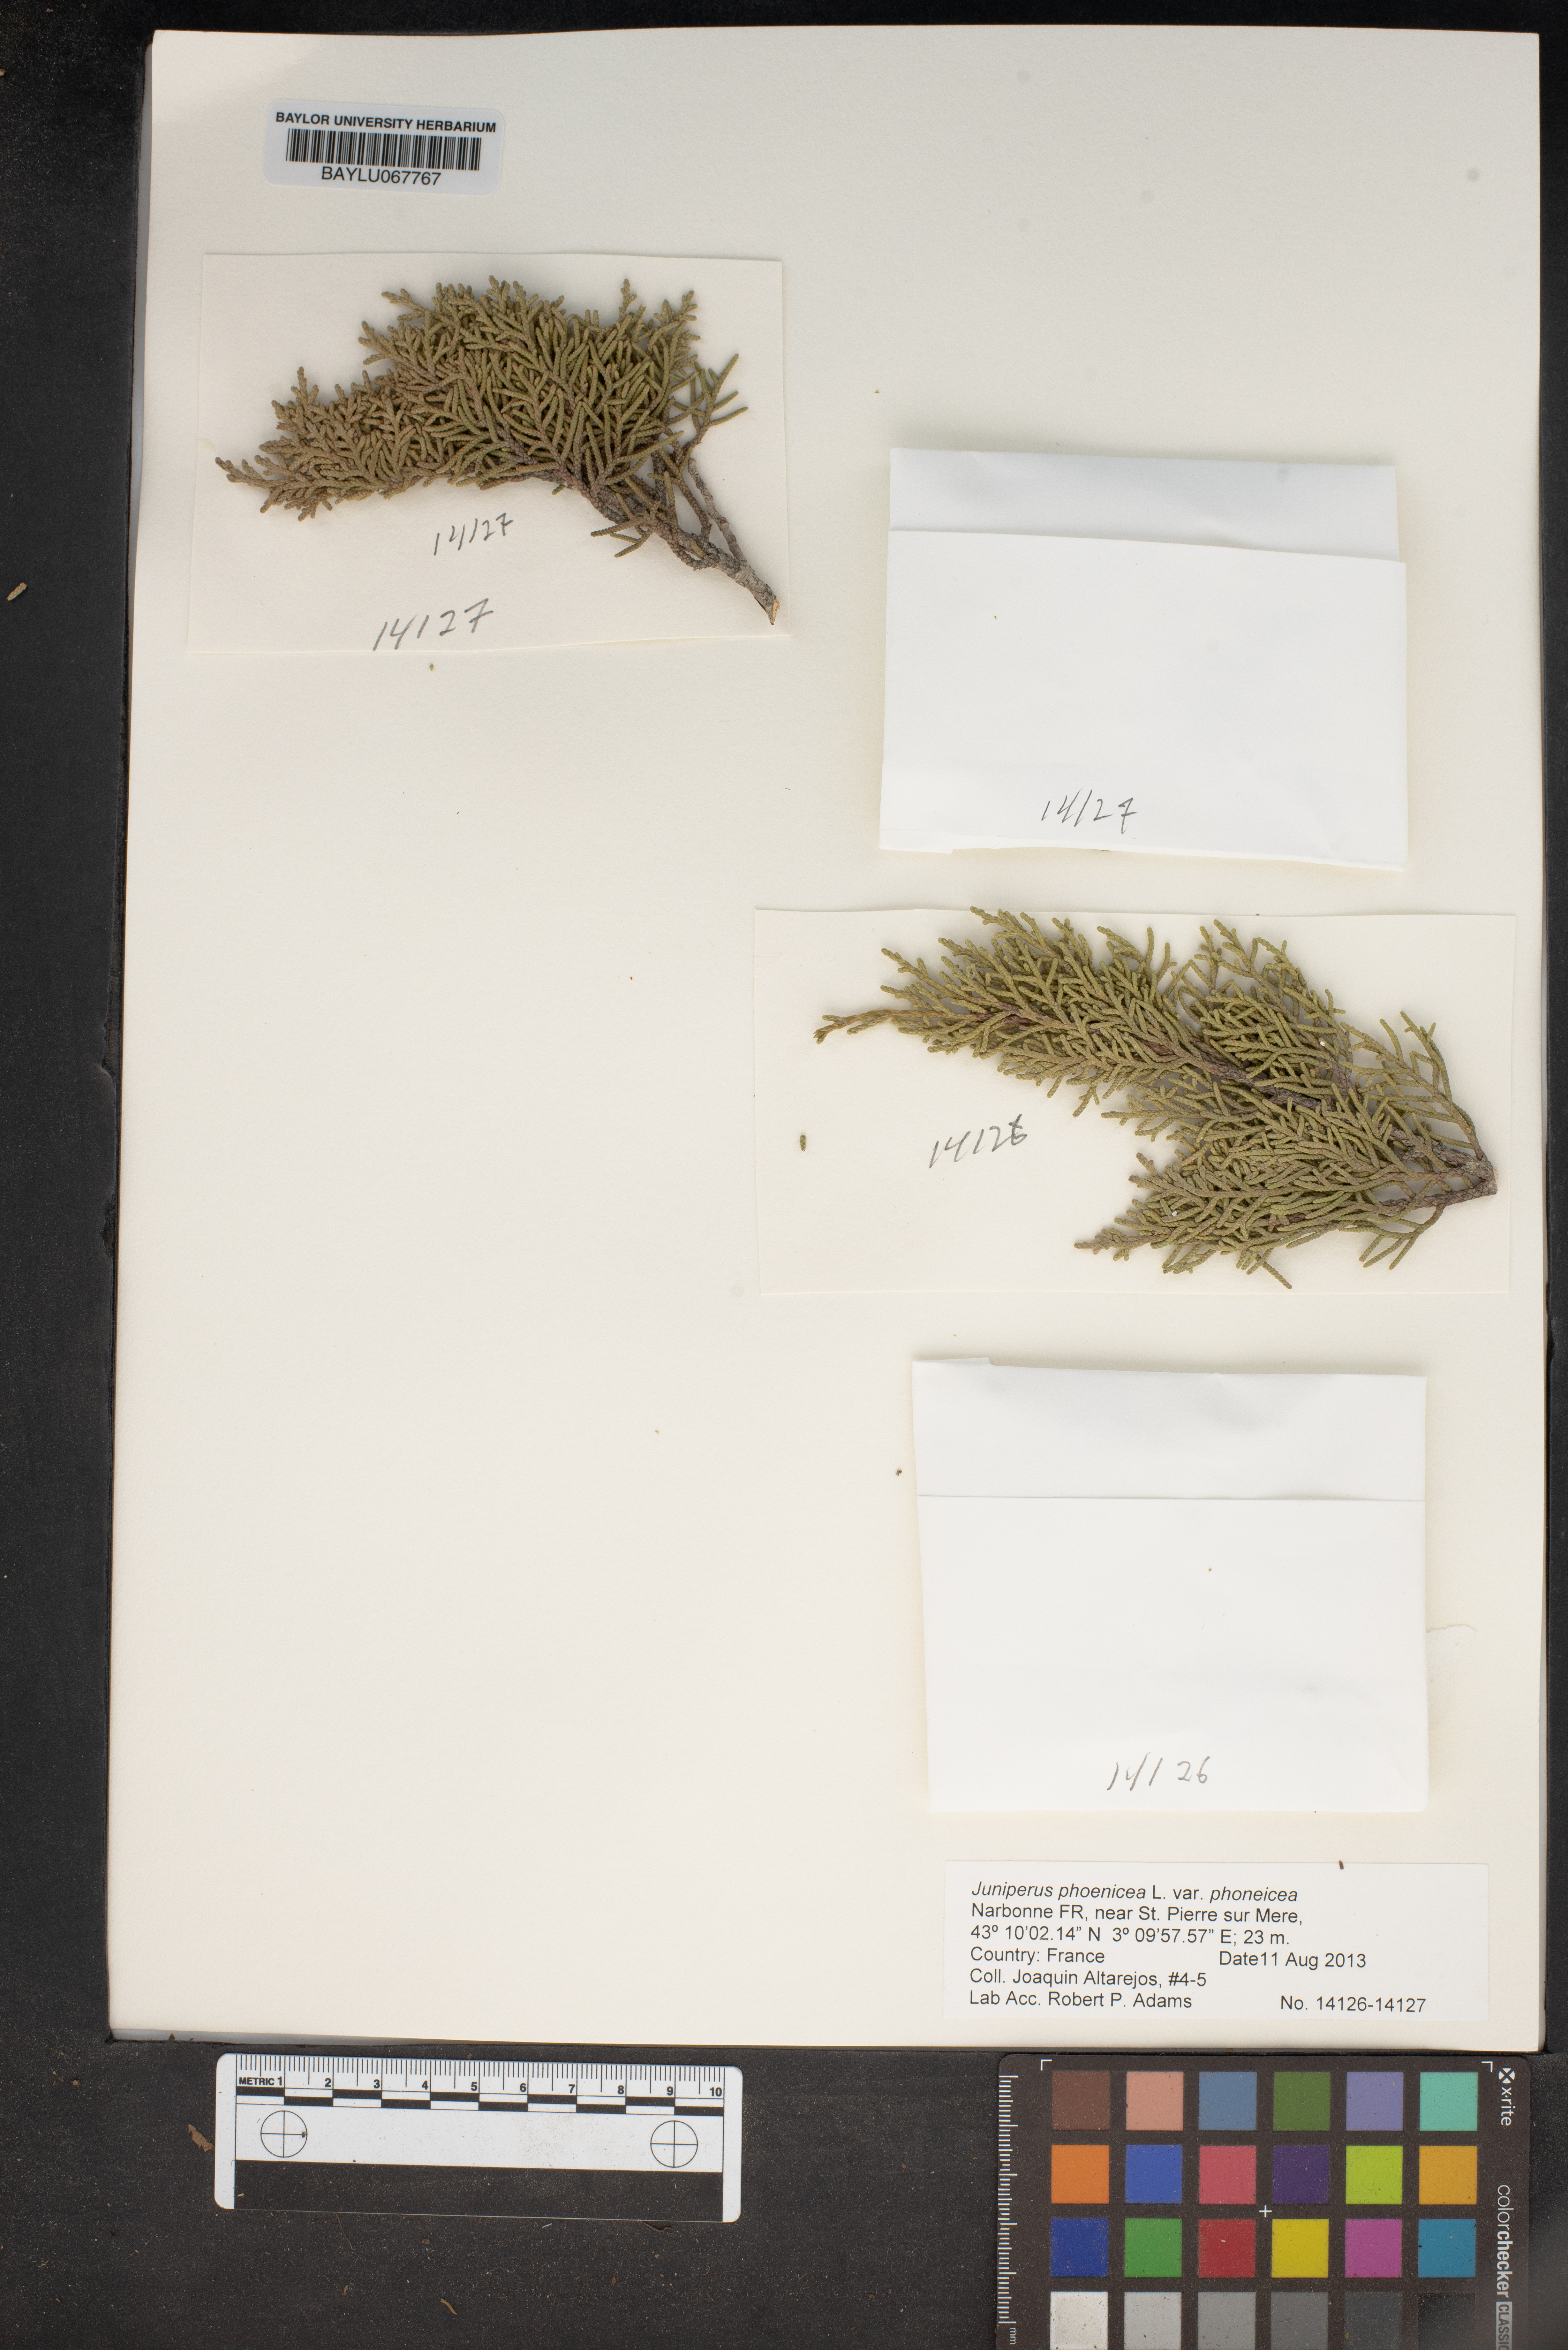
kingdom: Plantae
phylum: Tracheophyta
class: Pinopsida
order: Pinales
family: Cupressaceae
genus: Juniperus
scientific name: Juniperus phoenicea
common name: Phoenician juniper
